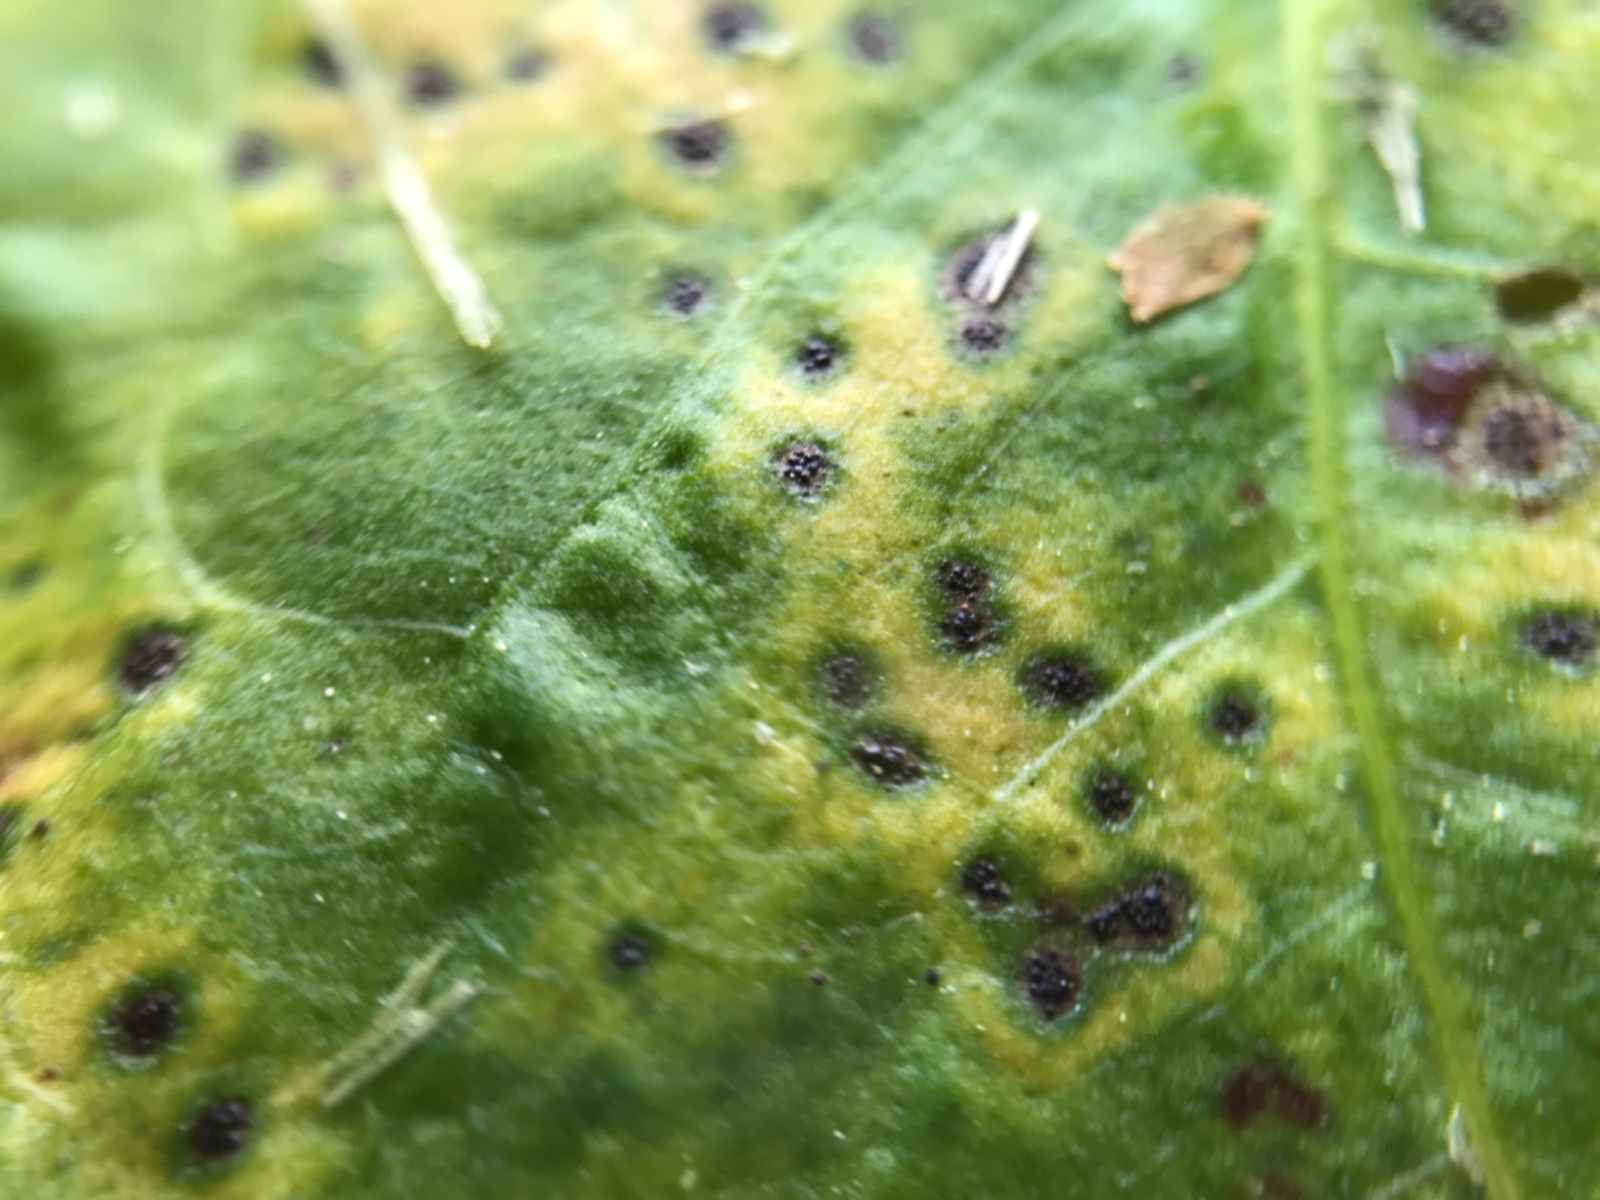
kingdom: Fungi
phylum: Ascomycota
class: Dothideomycetes
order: Venturiales
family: Venturiaceae
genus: Venturia
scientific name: Venturia rumicis
